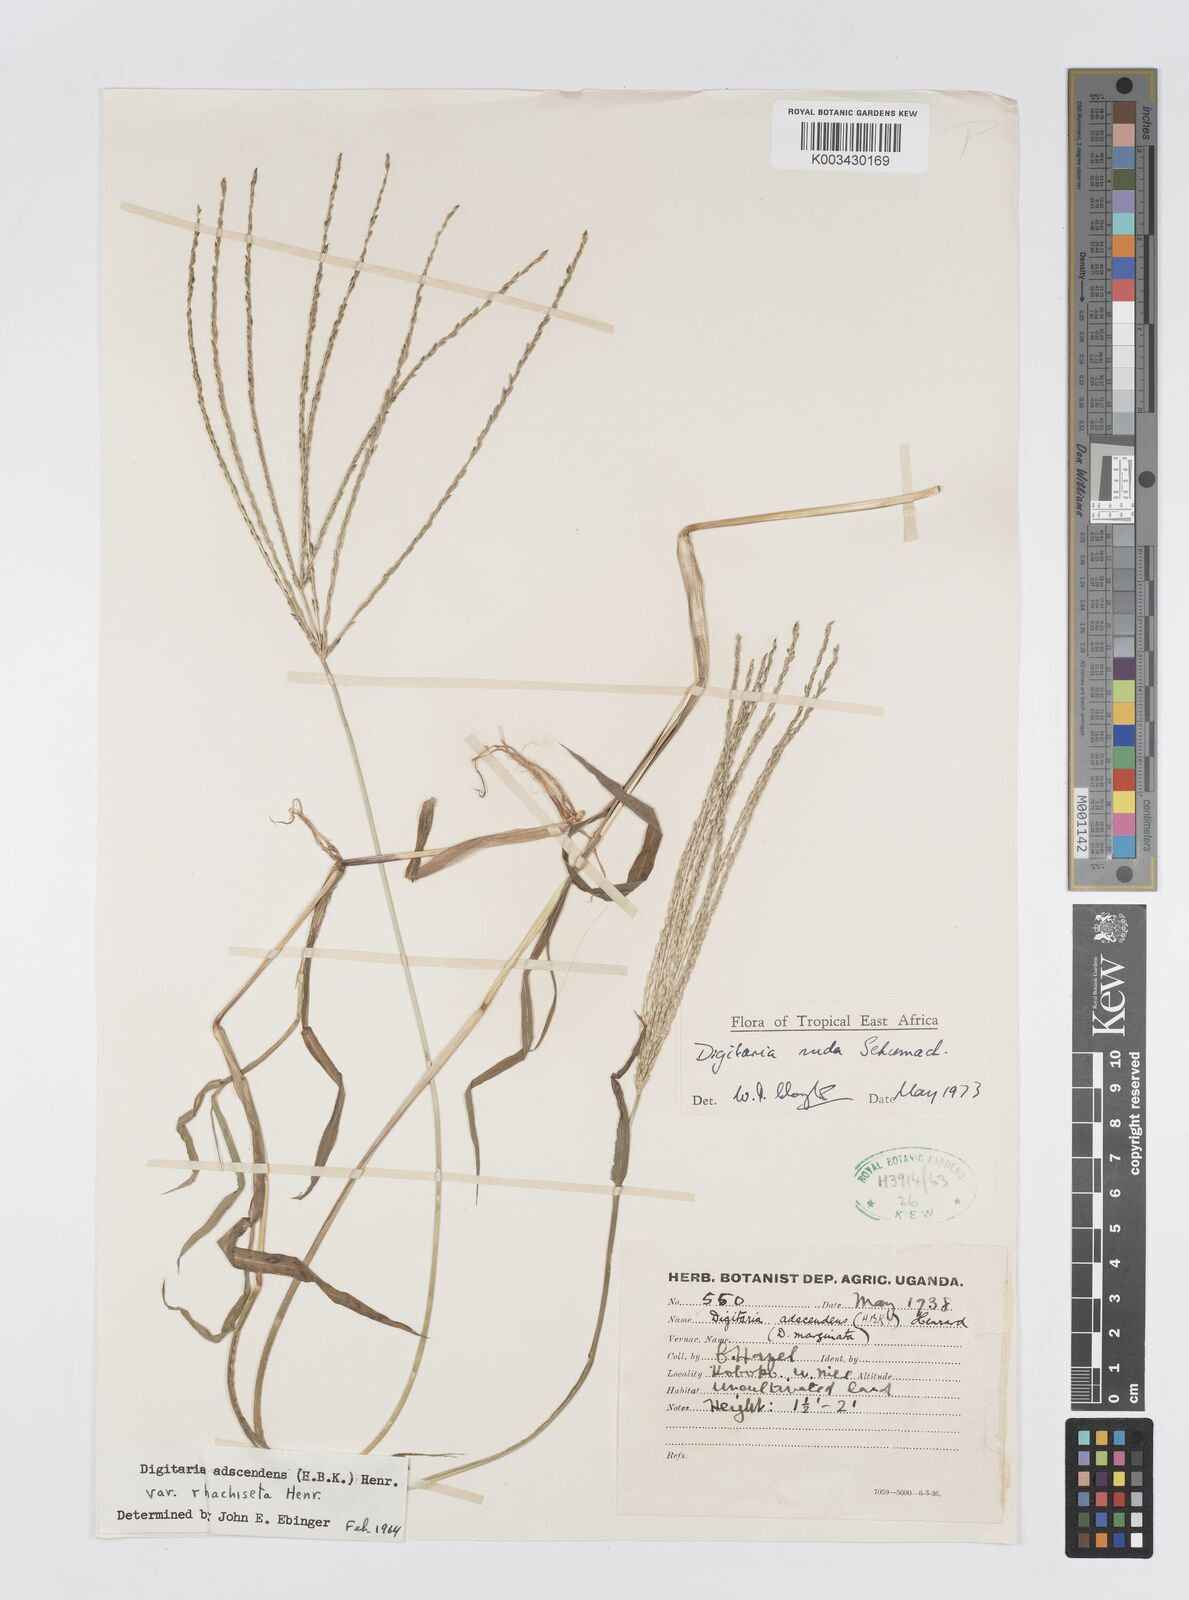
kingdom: Plantae
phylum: Tracheophyta
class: Liliopsida
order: Poales
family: Poaceae
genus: Digitaria
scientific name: Digitaria nuda
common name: Naked crabgrass
